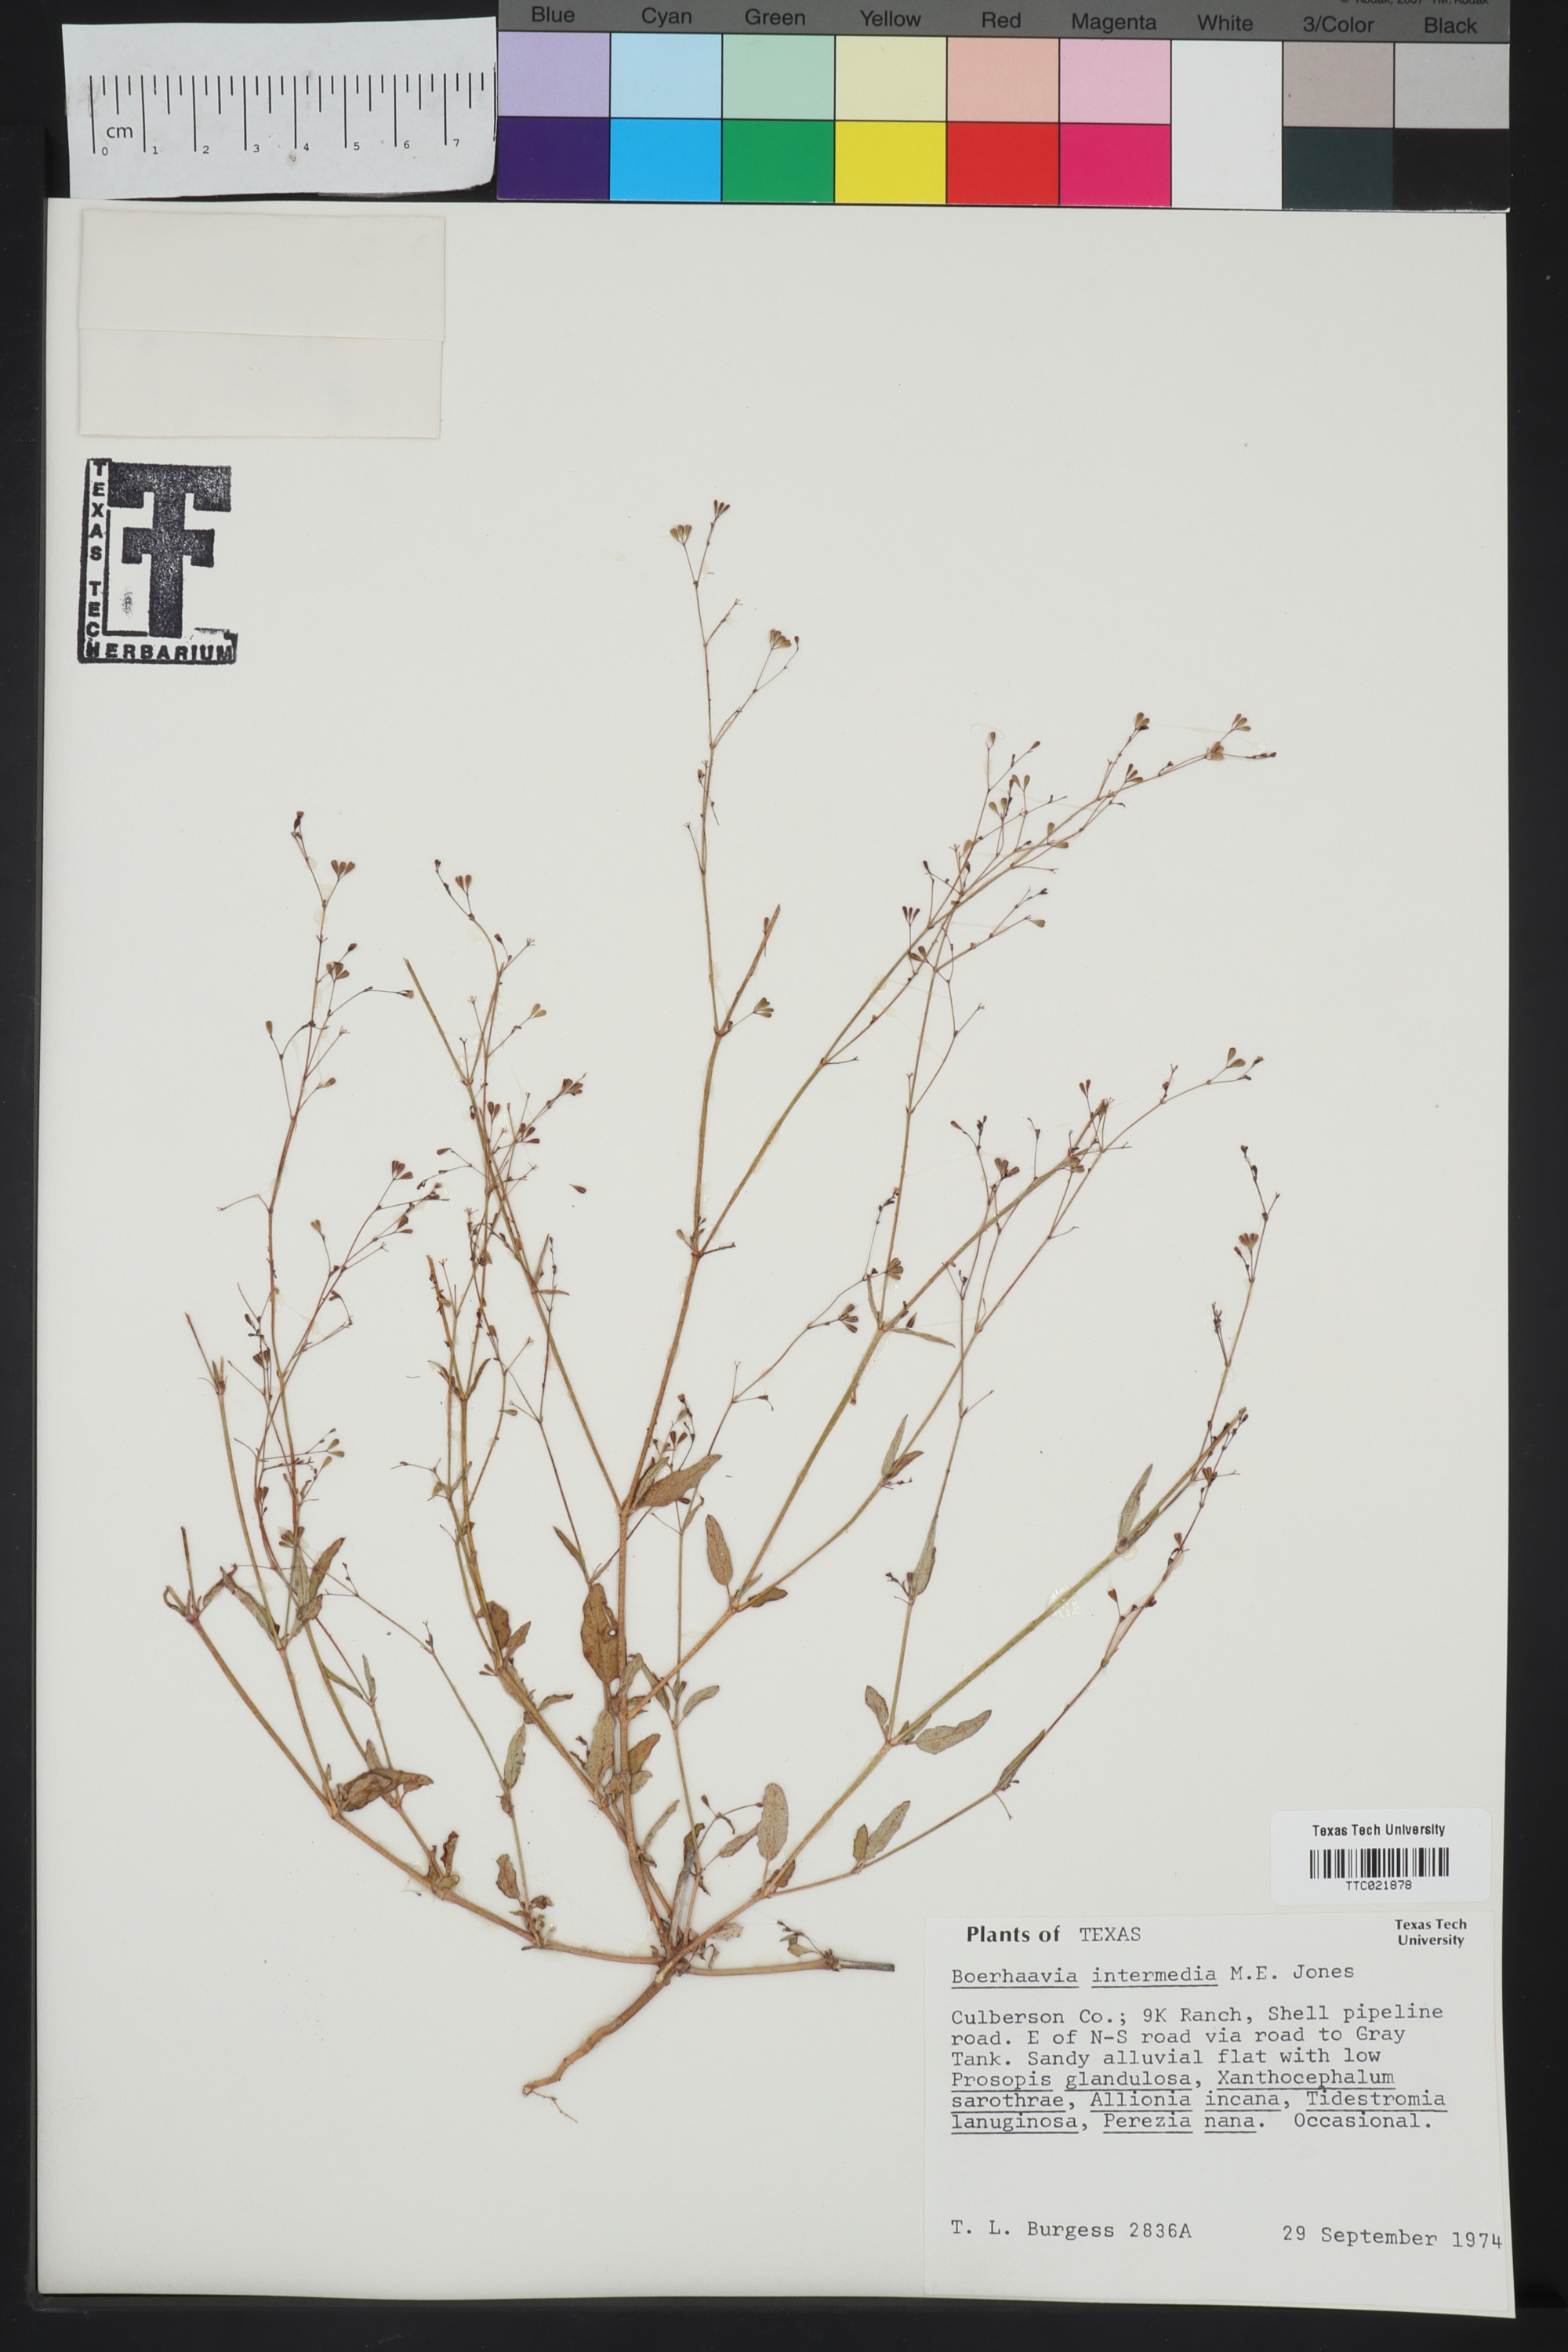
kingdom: Plantae
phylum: Tracheophyta
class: Magnoliopsida
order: Caryophyllales
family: Nyctaginaceae
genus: Boerhavia
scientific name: Boerhavia triquetra
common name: Creeping sticky-stem
